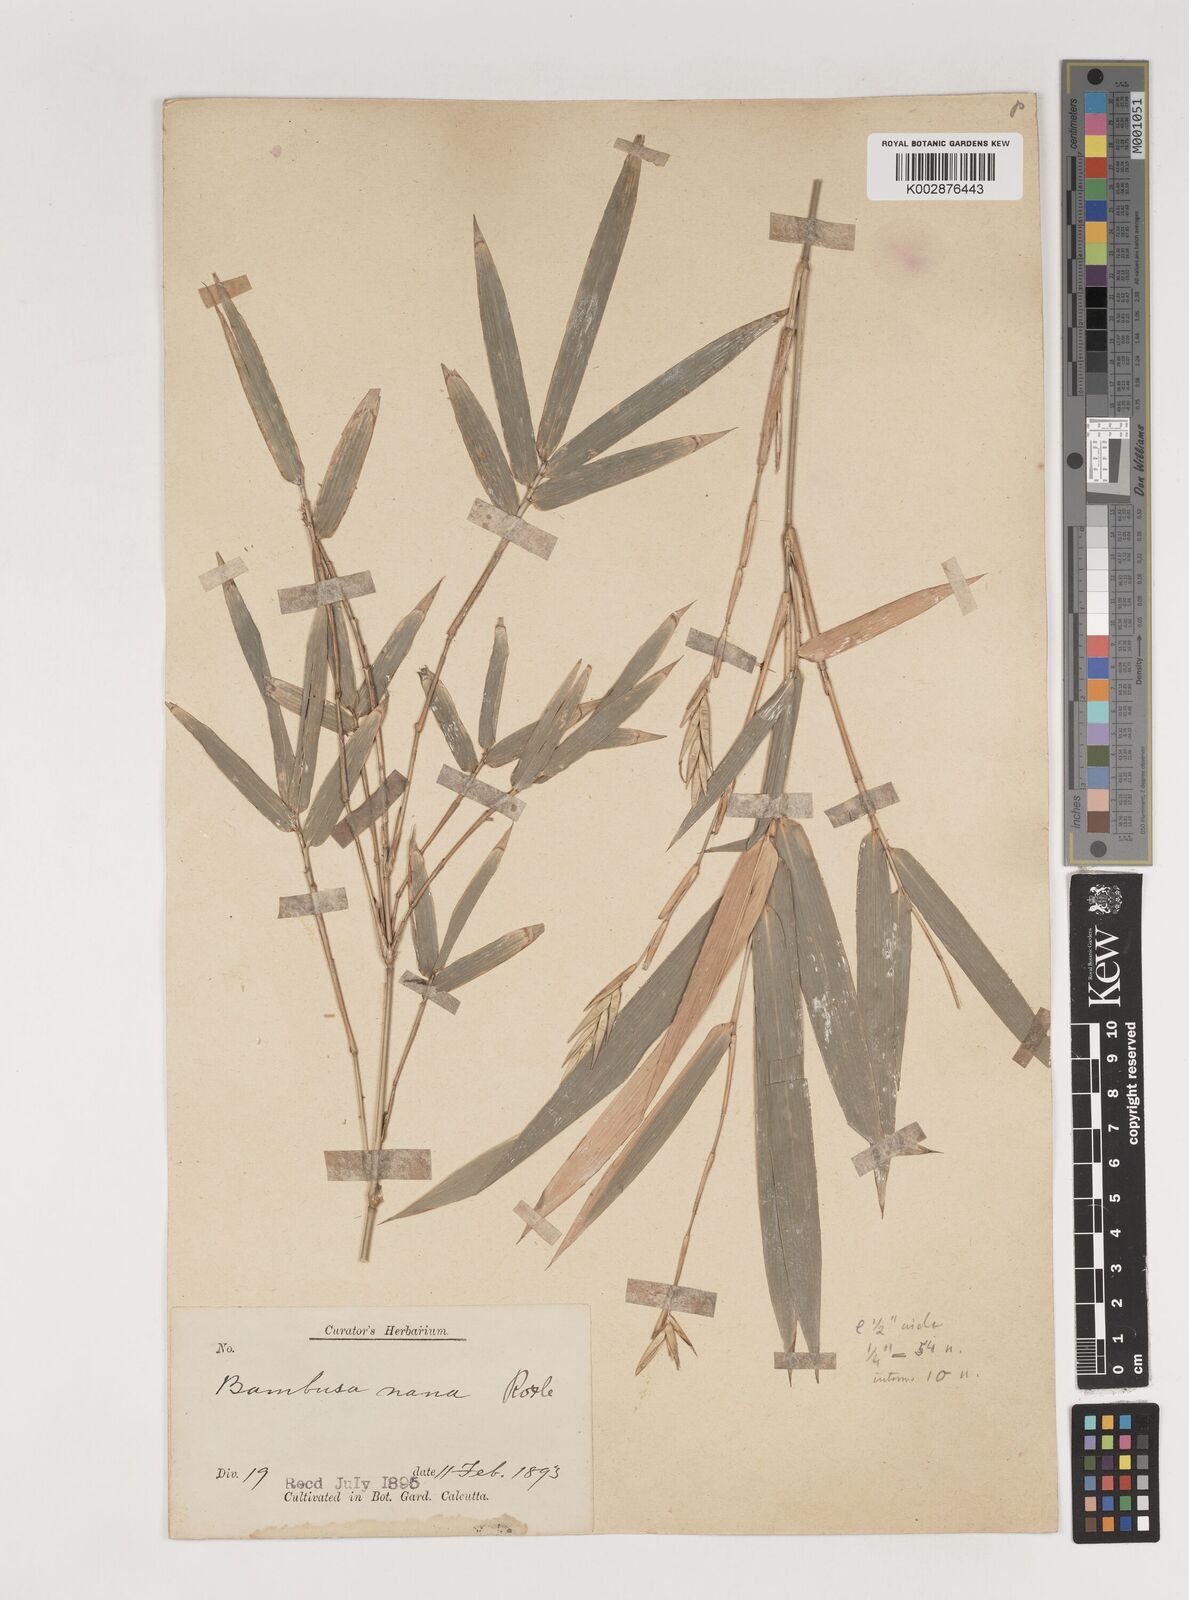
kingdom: Plantae
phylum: Tracheophyta
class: Liliopsida
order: Poales
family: Poaceae
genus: Bambusa
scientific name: Bambusa multiplex
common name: Hedge bamboo
